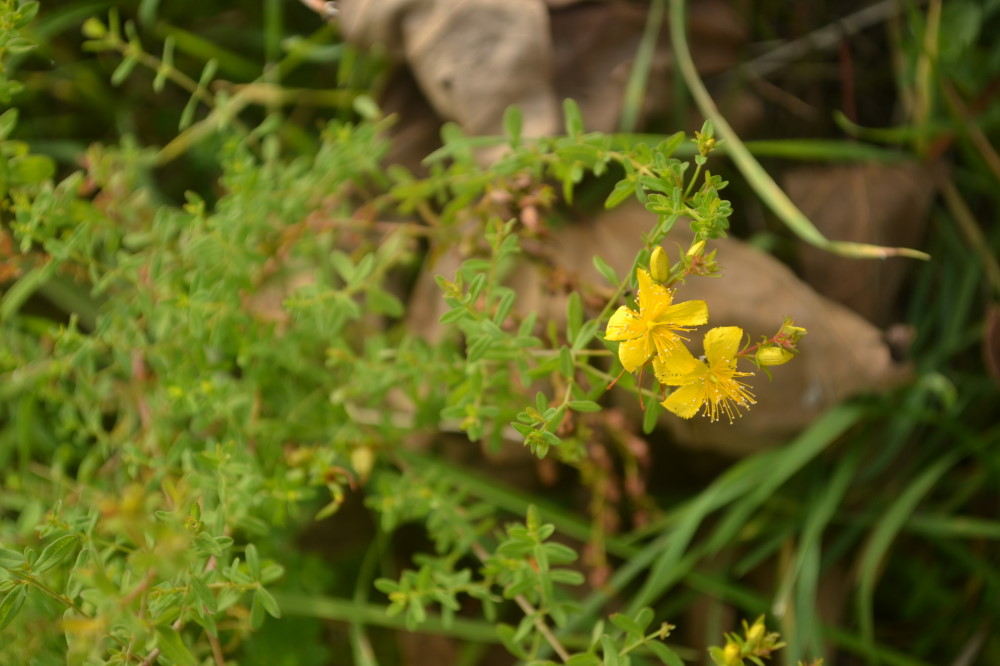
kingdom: Plantae
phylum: Tracheophyta
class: Magnoliopsida
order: Malpighiales
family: Hypericaceae
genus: Hypericum
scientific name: Hypericum
